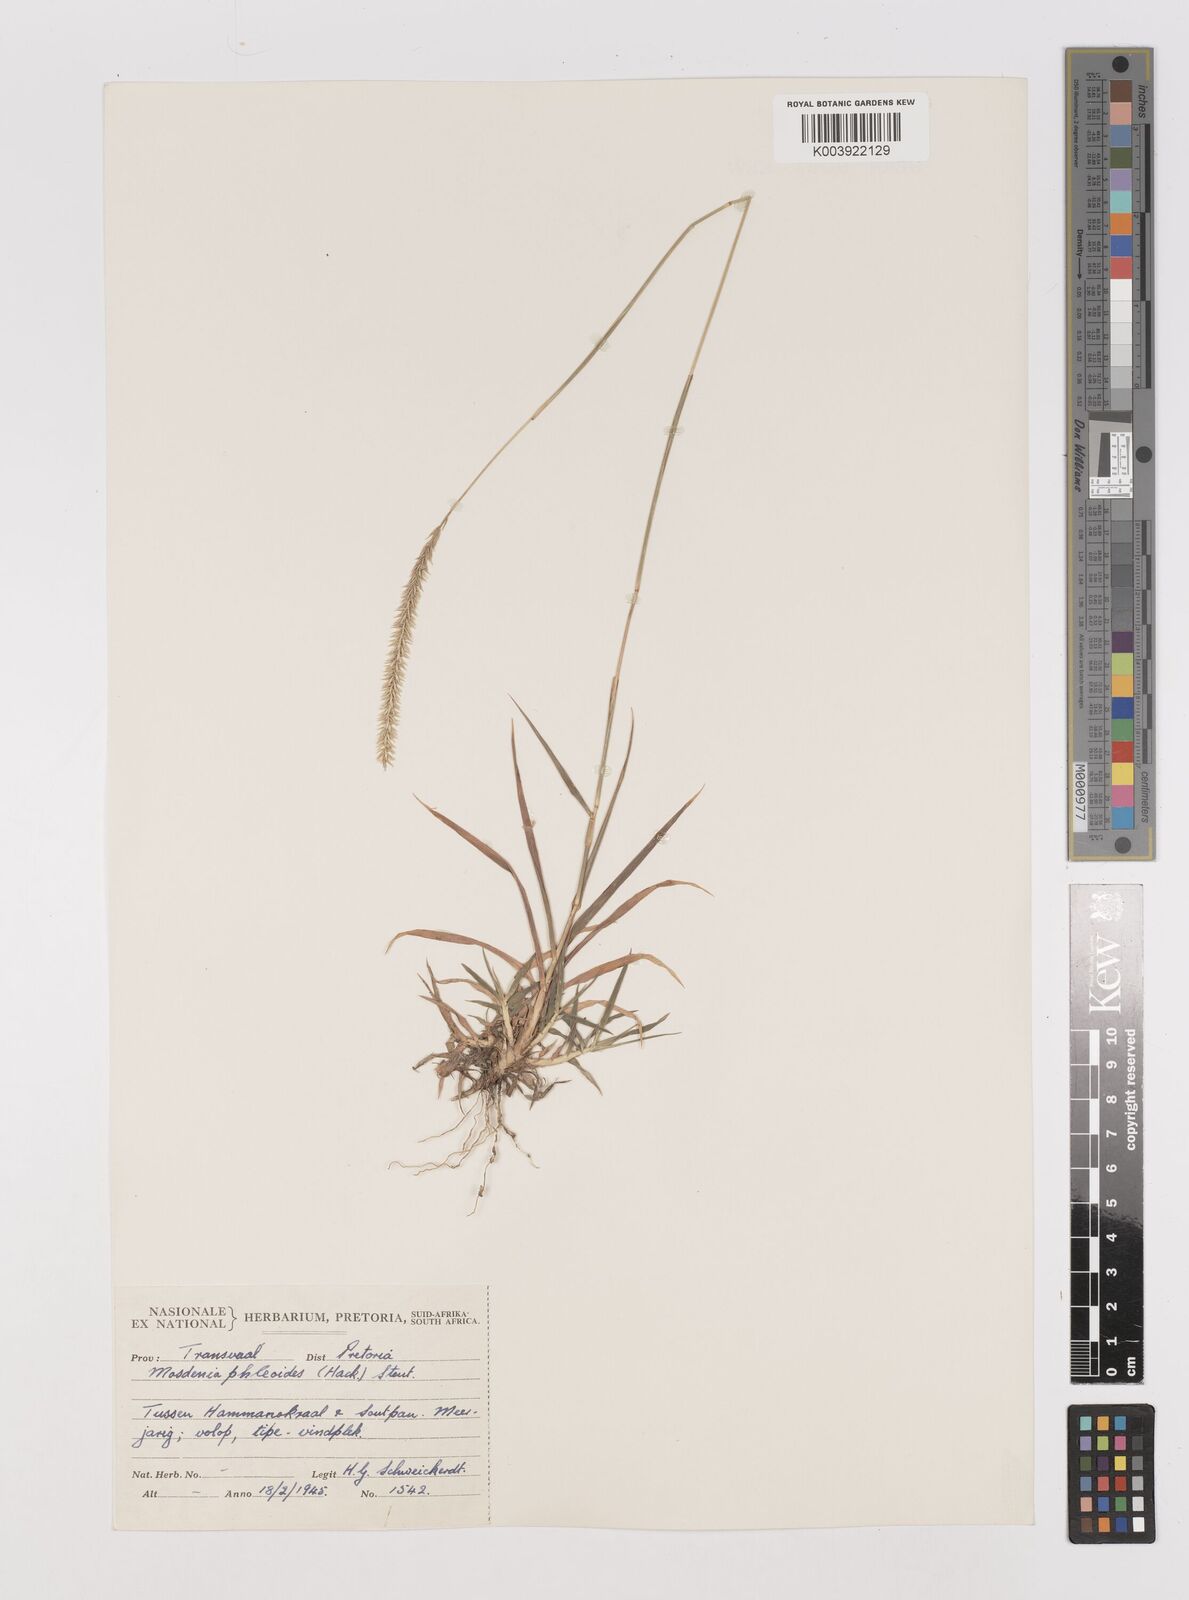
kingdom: Plantae
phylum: Tracheophyta
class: Liliopsida
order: Poales
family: Poaceae
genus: Mosdenia
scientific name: Mosdenia leptostachys
